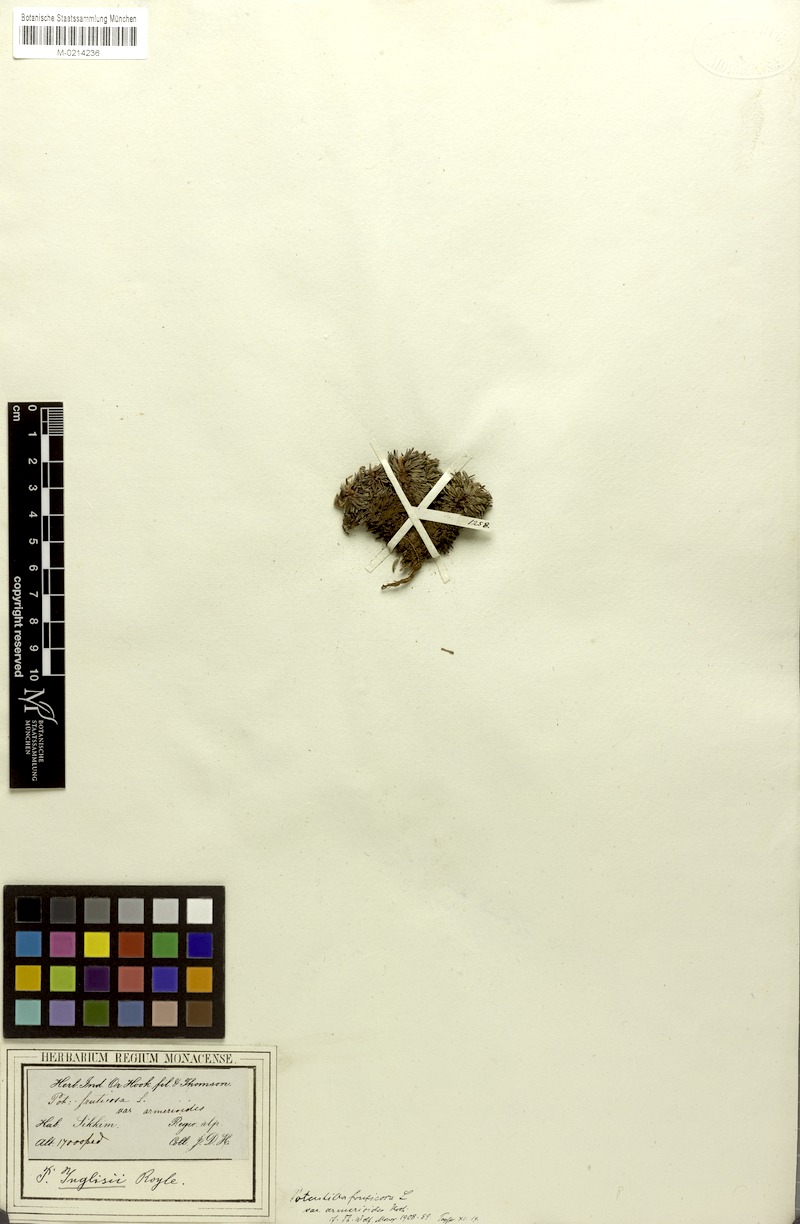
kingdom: Plantae
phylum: Tracheophyta
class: Magnoliopsida
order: Rosales
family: Rosaceae
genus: Potentilla
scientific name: Potentilla articulata
